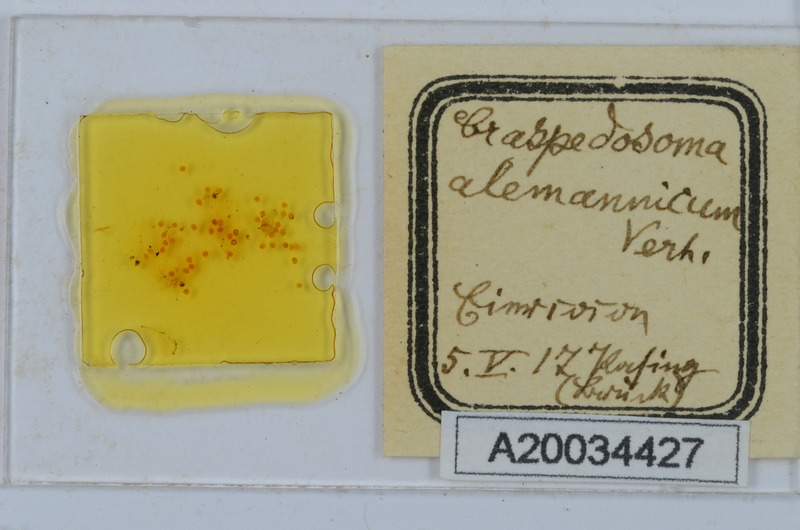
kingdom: Animalia
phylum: Arthropoda
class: Diplopoda
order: Chordeumatida
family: Craspedosomatidae
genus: Craspedosoma
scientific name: Craspedosoma alemannicum
